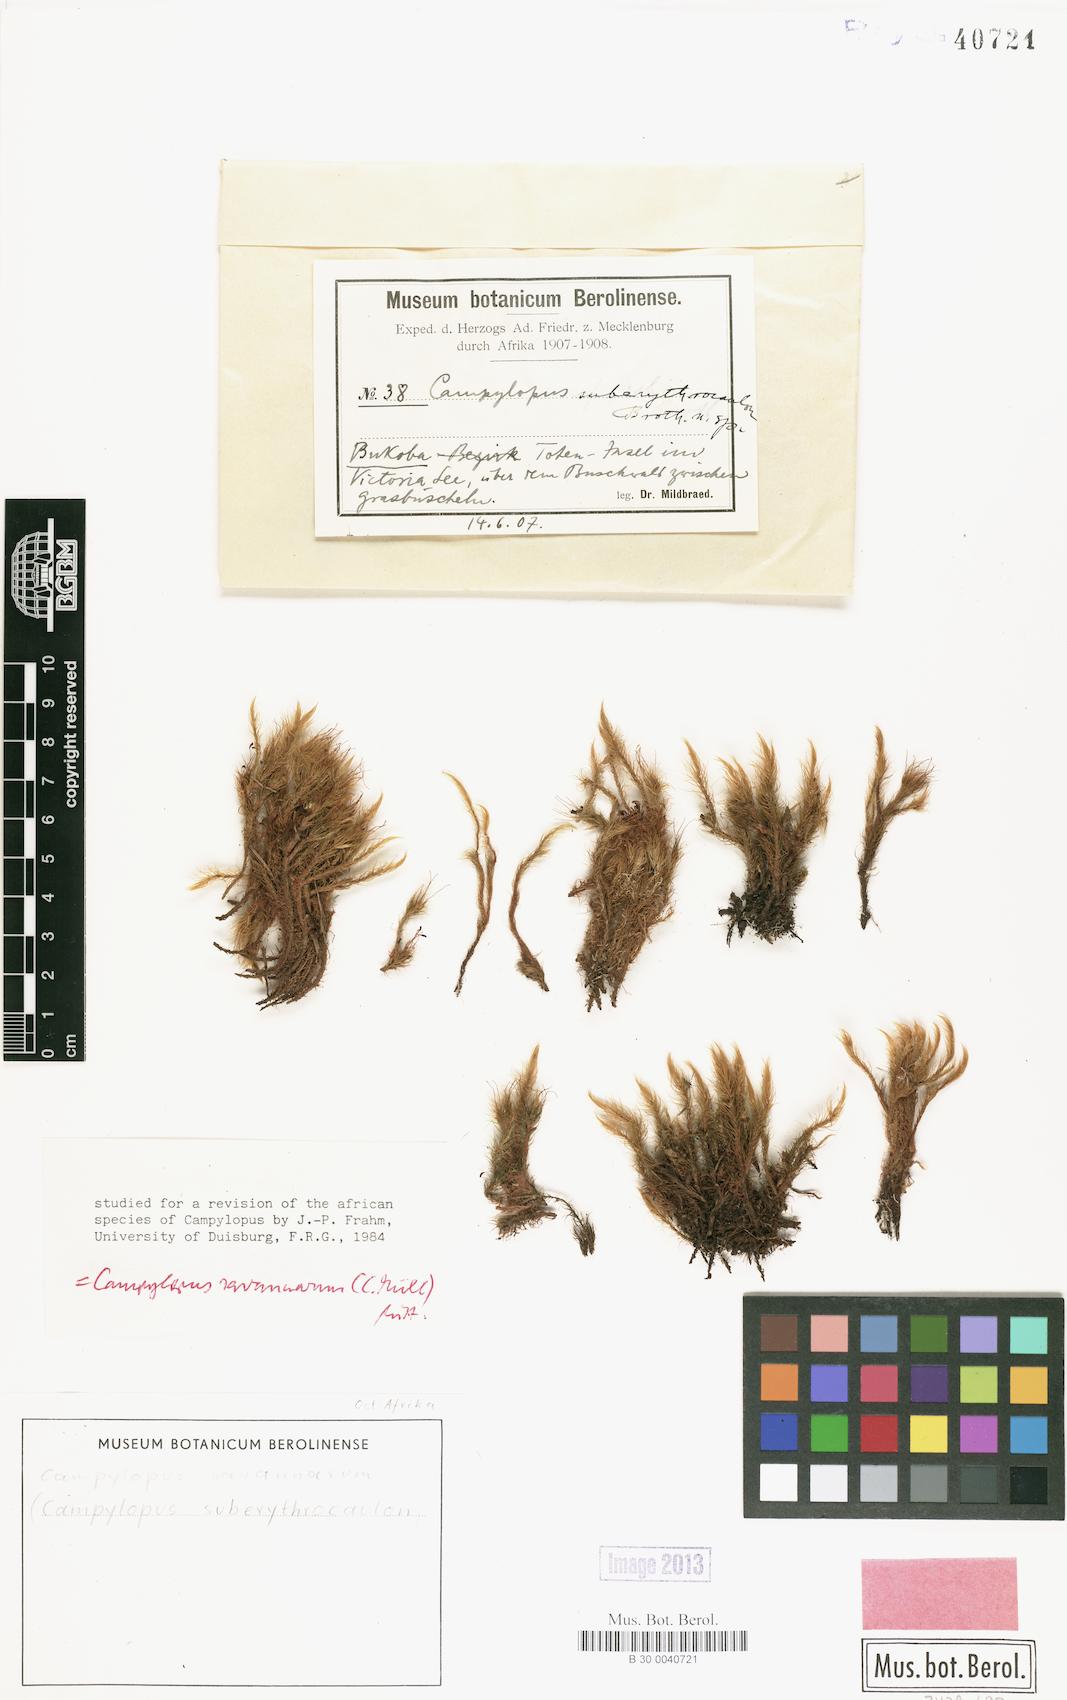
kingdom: Plantae
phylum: Bryophyta
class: Bryopsida
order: Dicranales
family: Leucobryaceae
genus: Campylopus
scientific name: Campylopus savannarum
